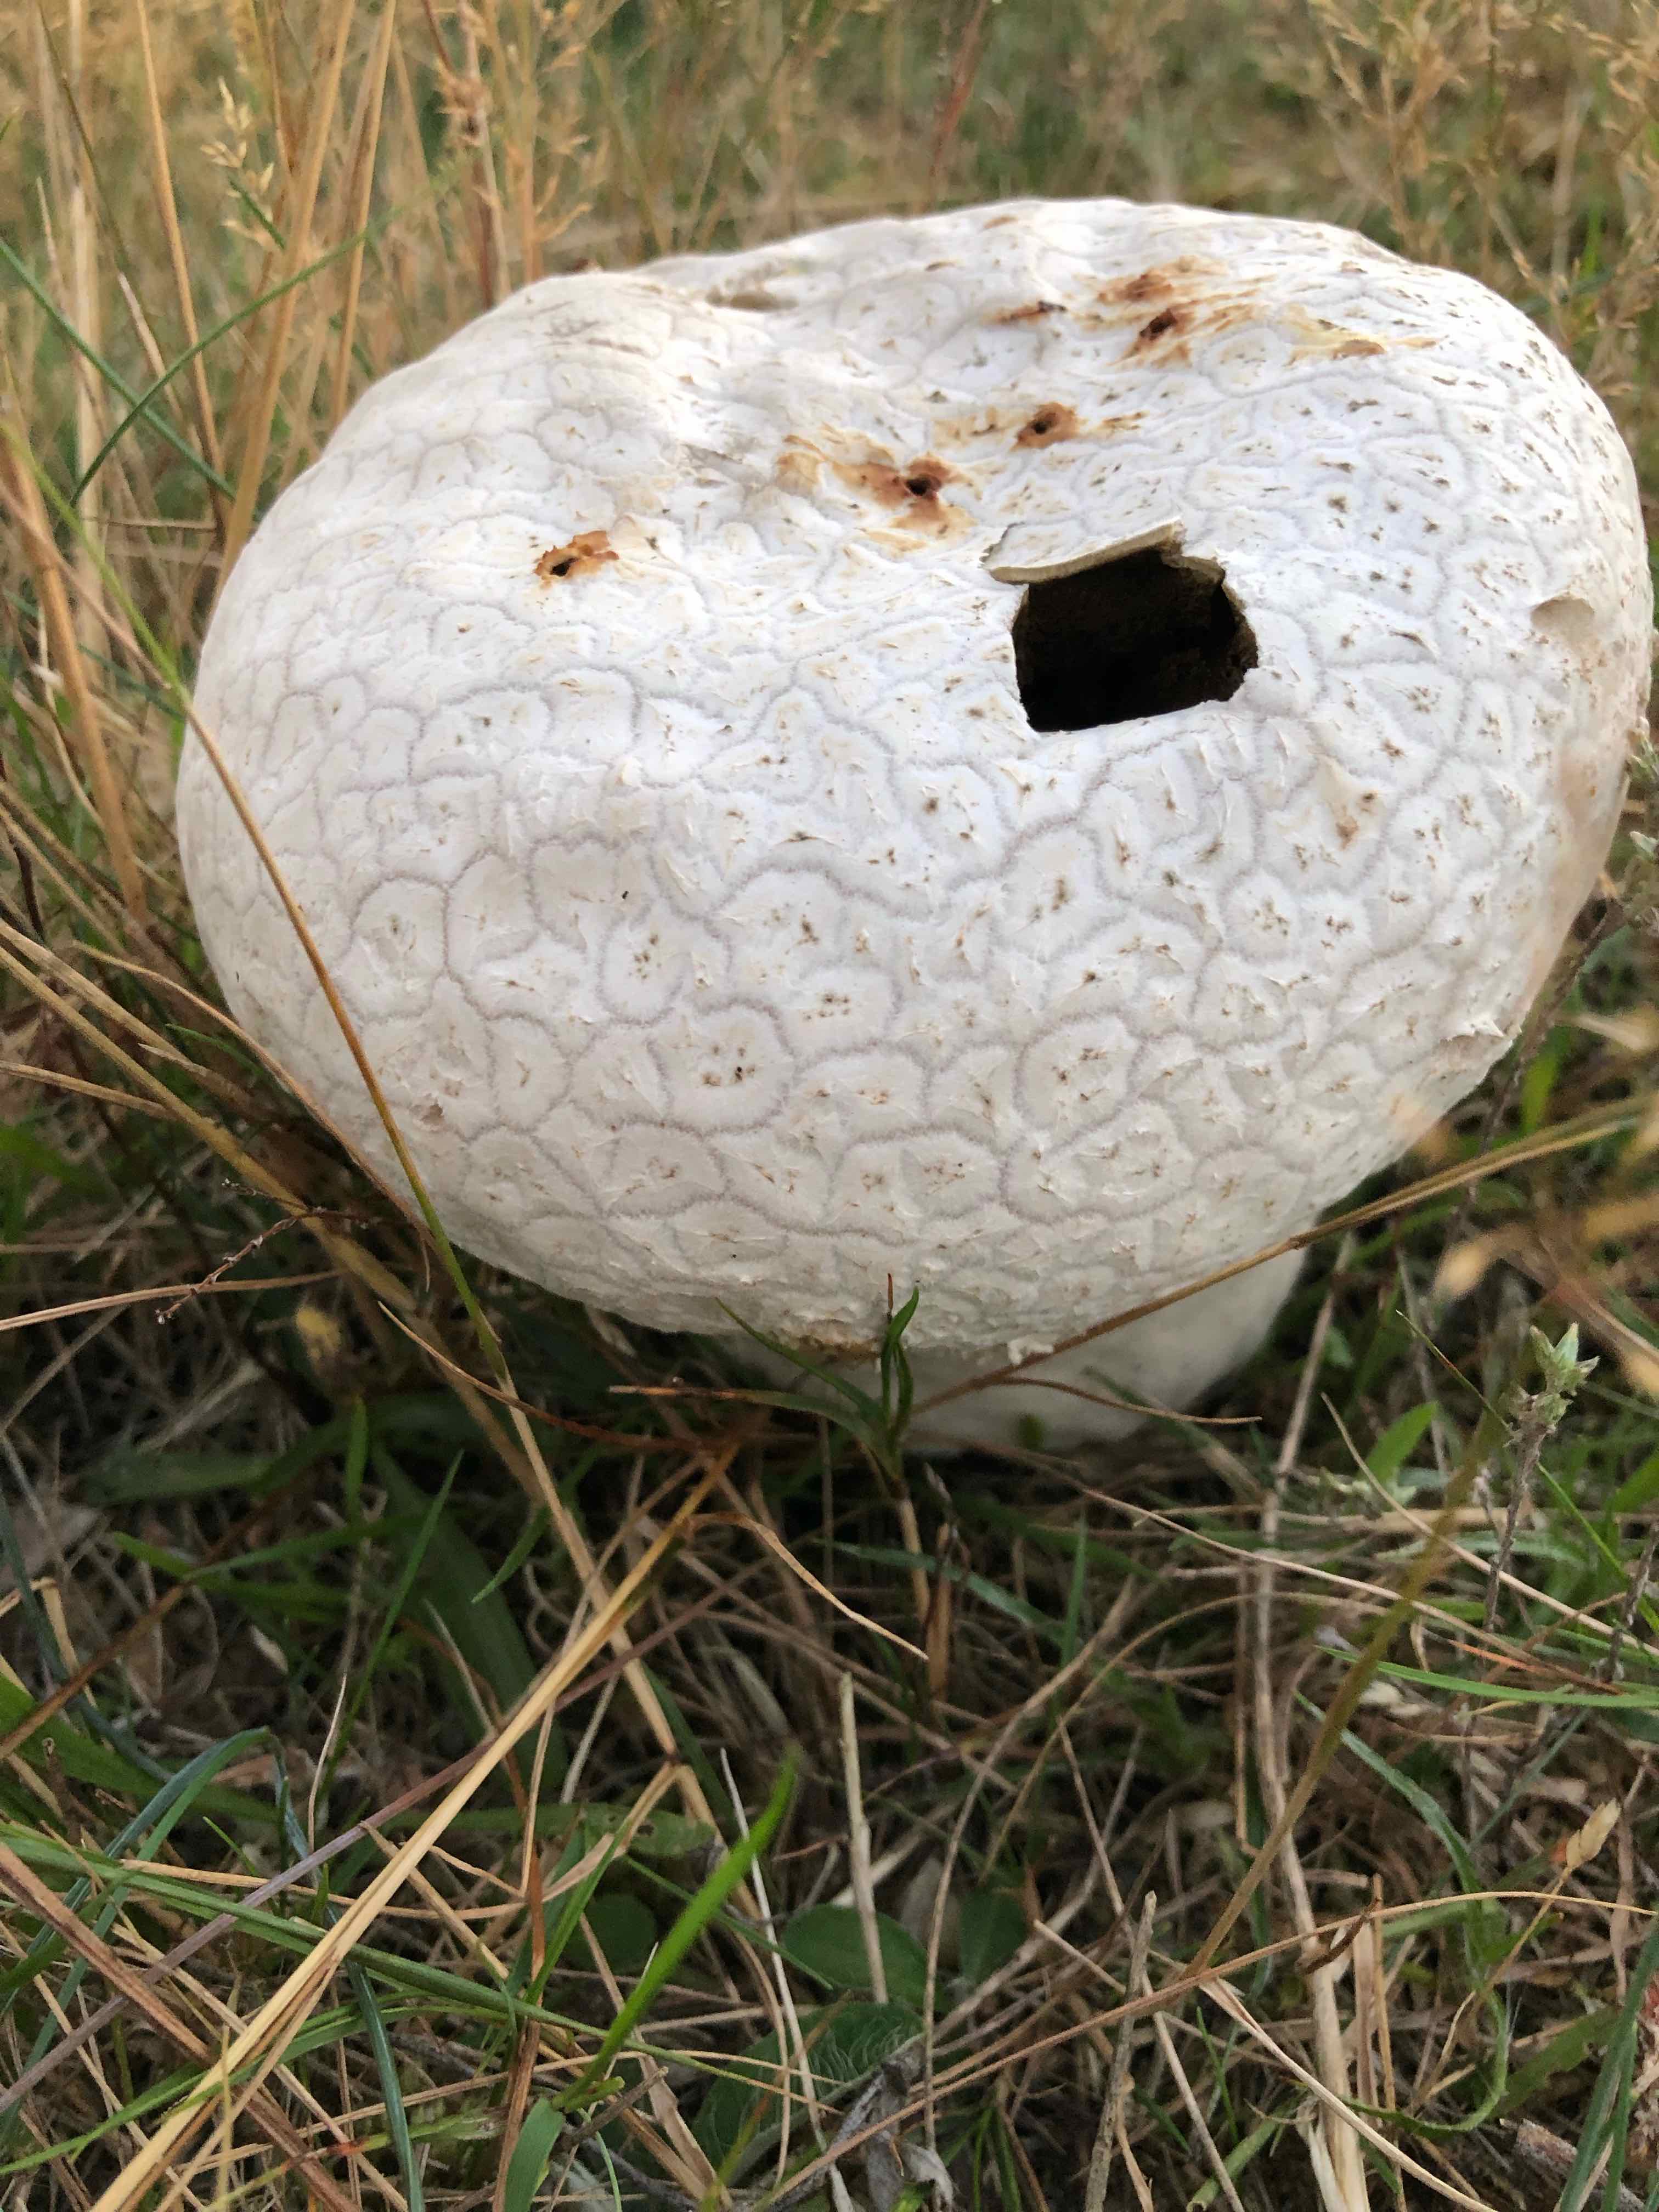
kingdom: Fungi
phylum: Basidiomycota
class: Agaricomycetes
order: Agaricales
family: Lycoperdaceae
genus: Bovistella
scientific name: Bovistella utriformis
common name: skællet støvbold
